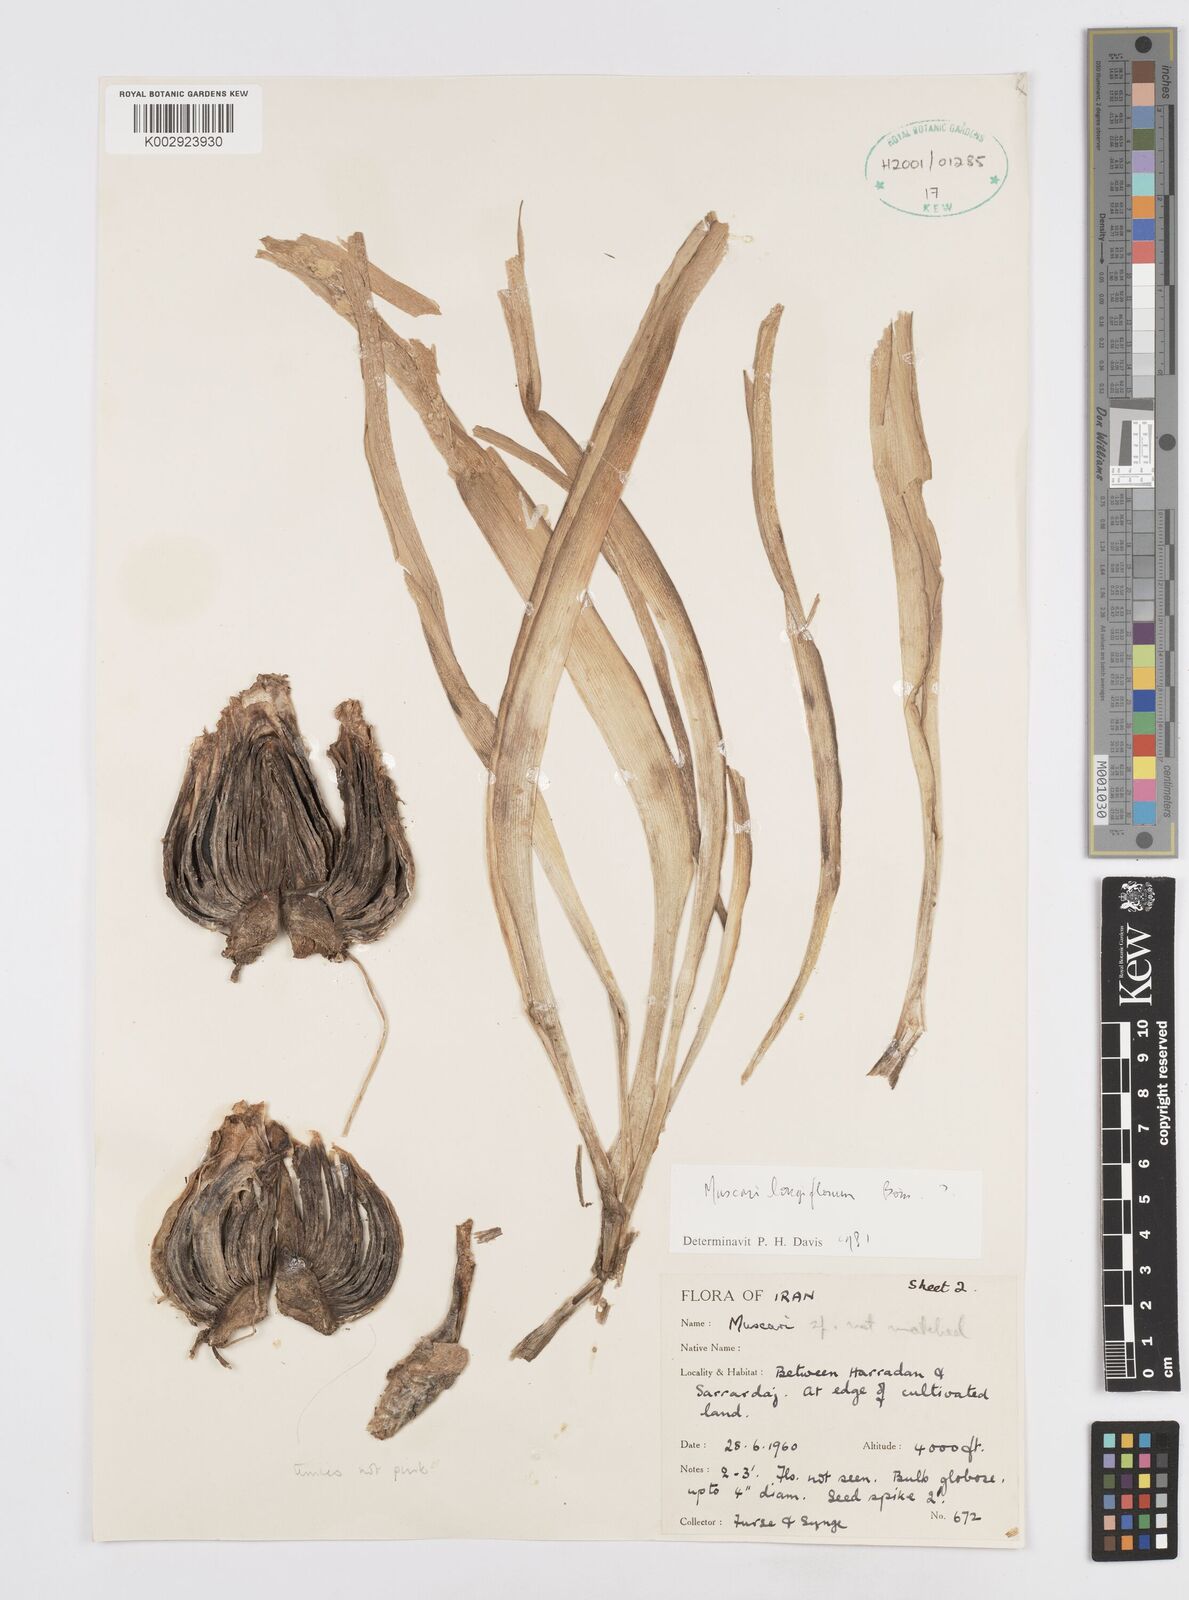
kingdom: Plantae
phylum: Tracheophyta
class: Liliopsida
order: Asparagales
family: Asparagaceae
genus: Muscari
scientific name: Muscari
